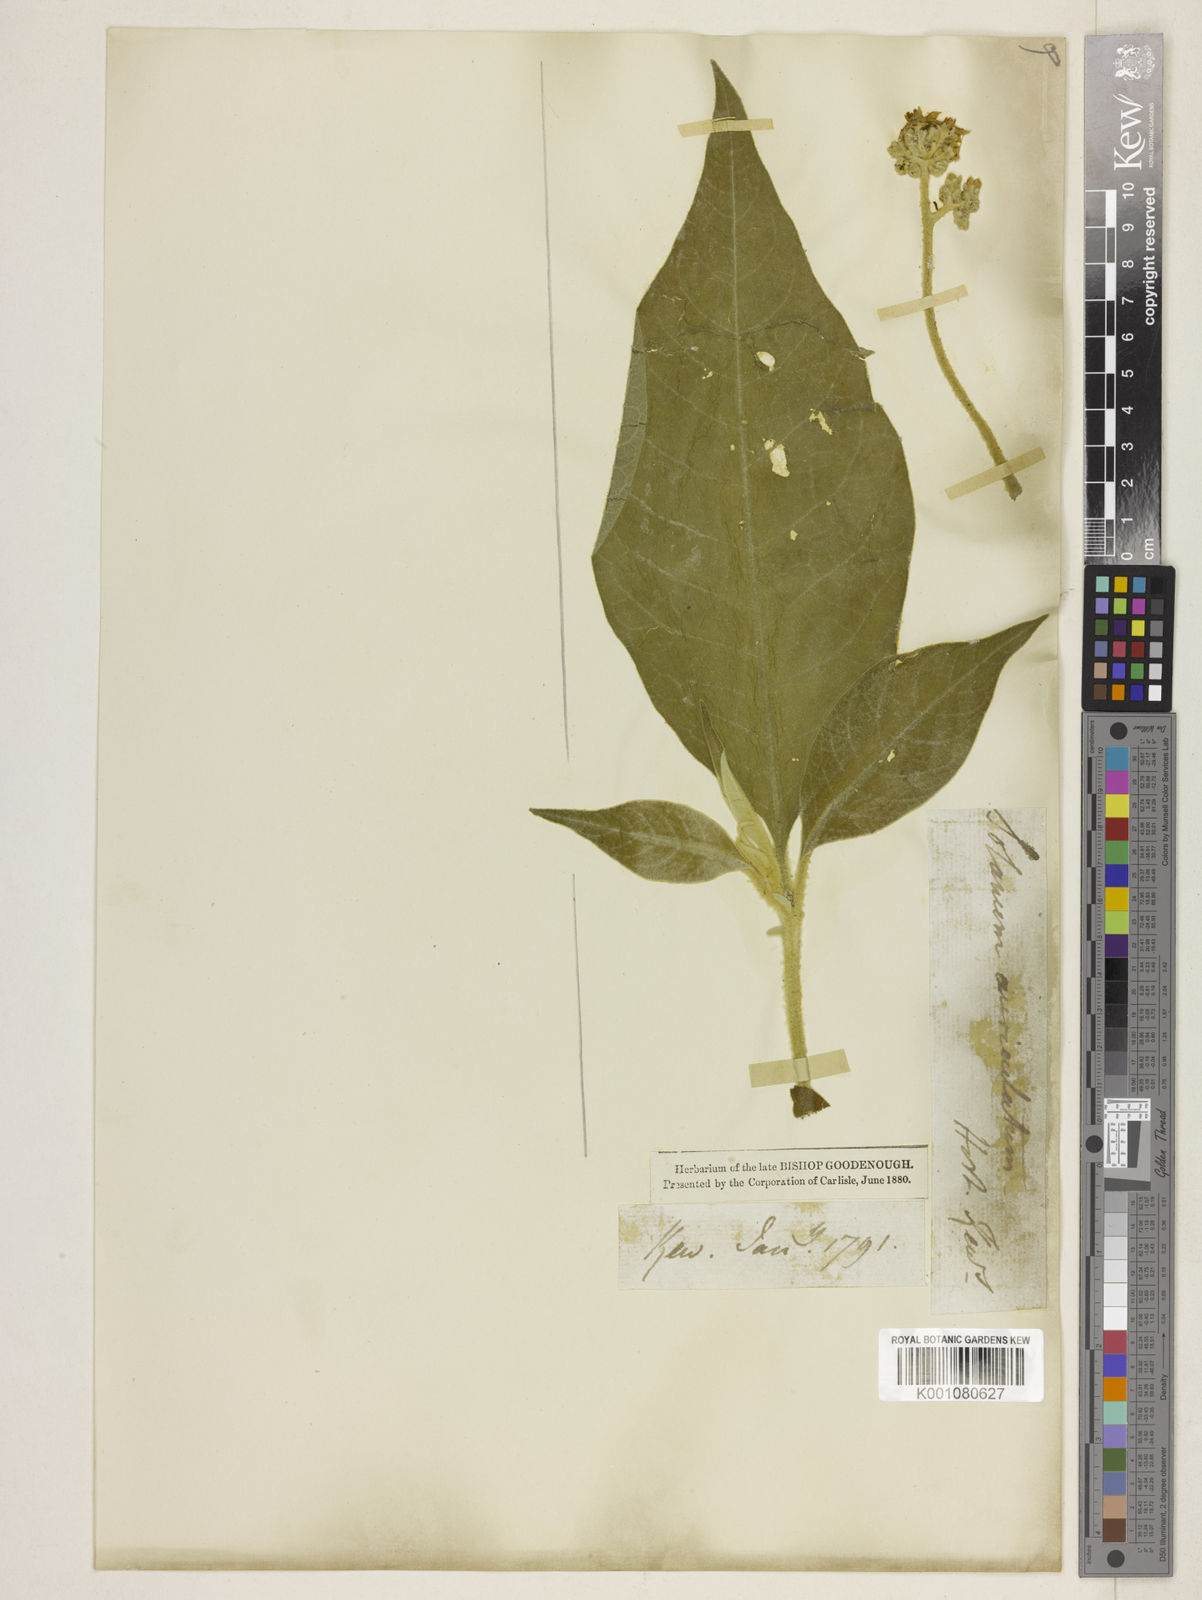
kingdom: Plantae
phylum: Tracheophyta
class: Magnoliopsida
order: Solanales
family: Solanaceae
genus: Solanum
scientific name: Solanum mauritianum
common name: Earleaf nightshade
